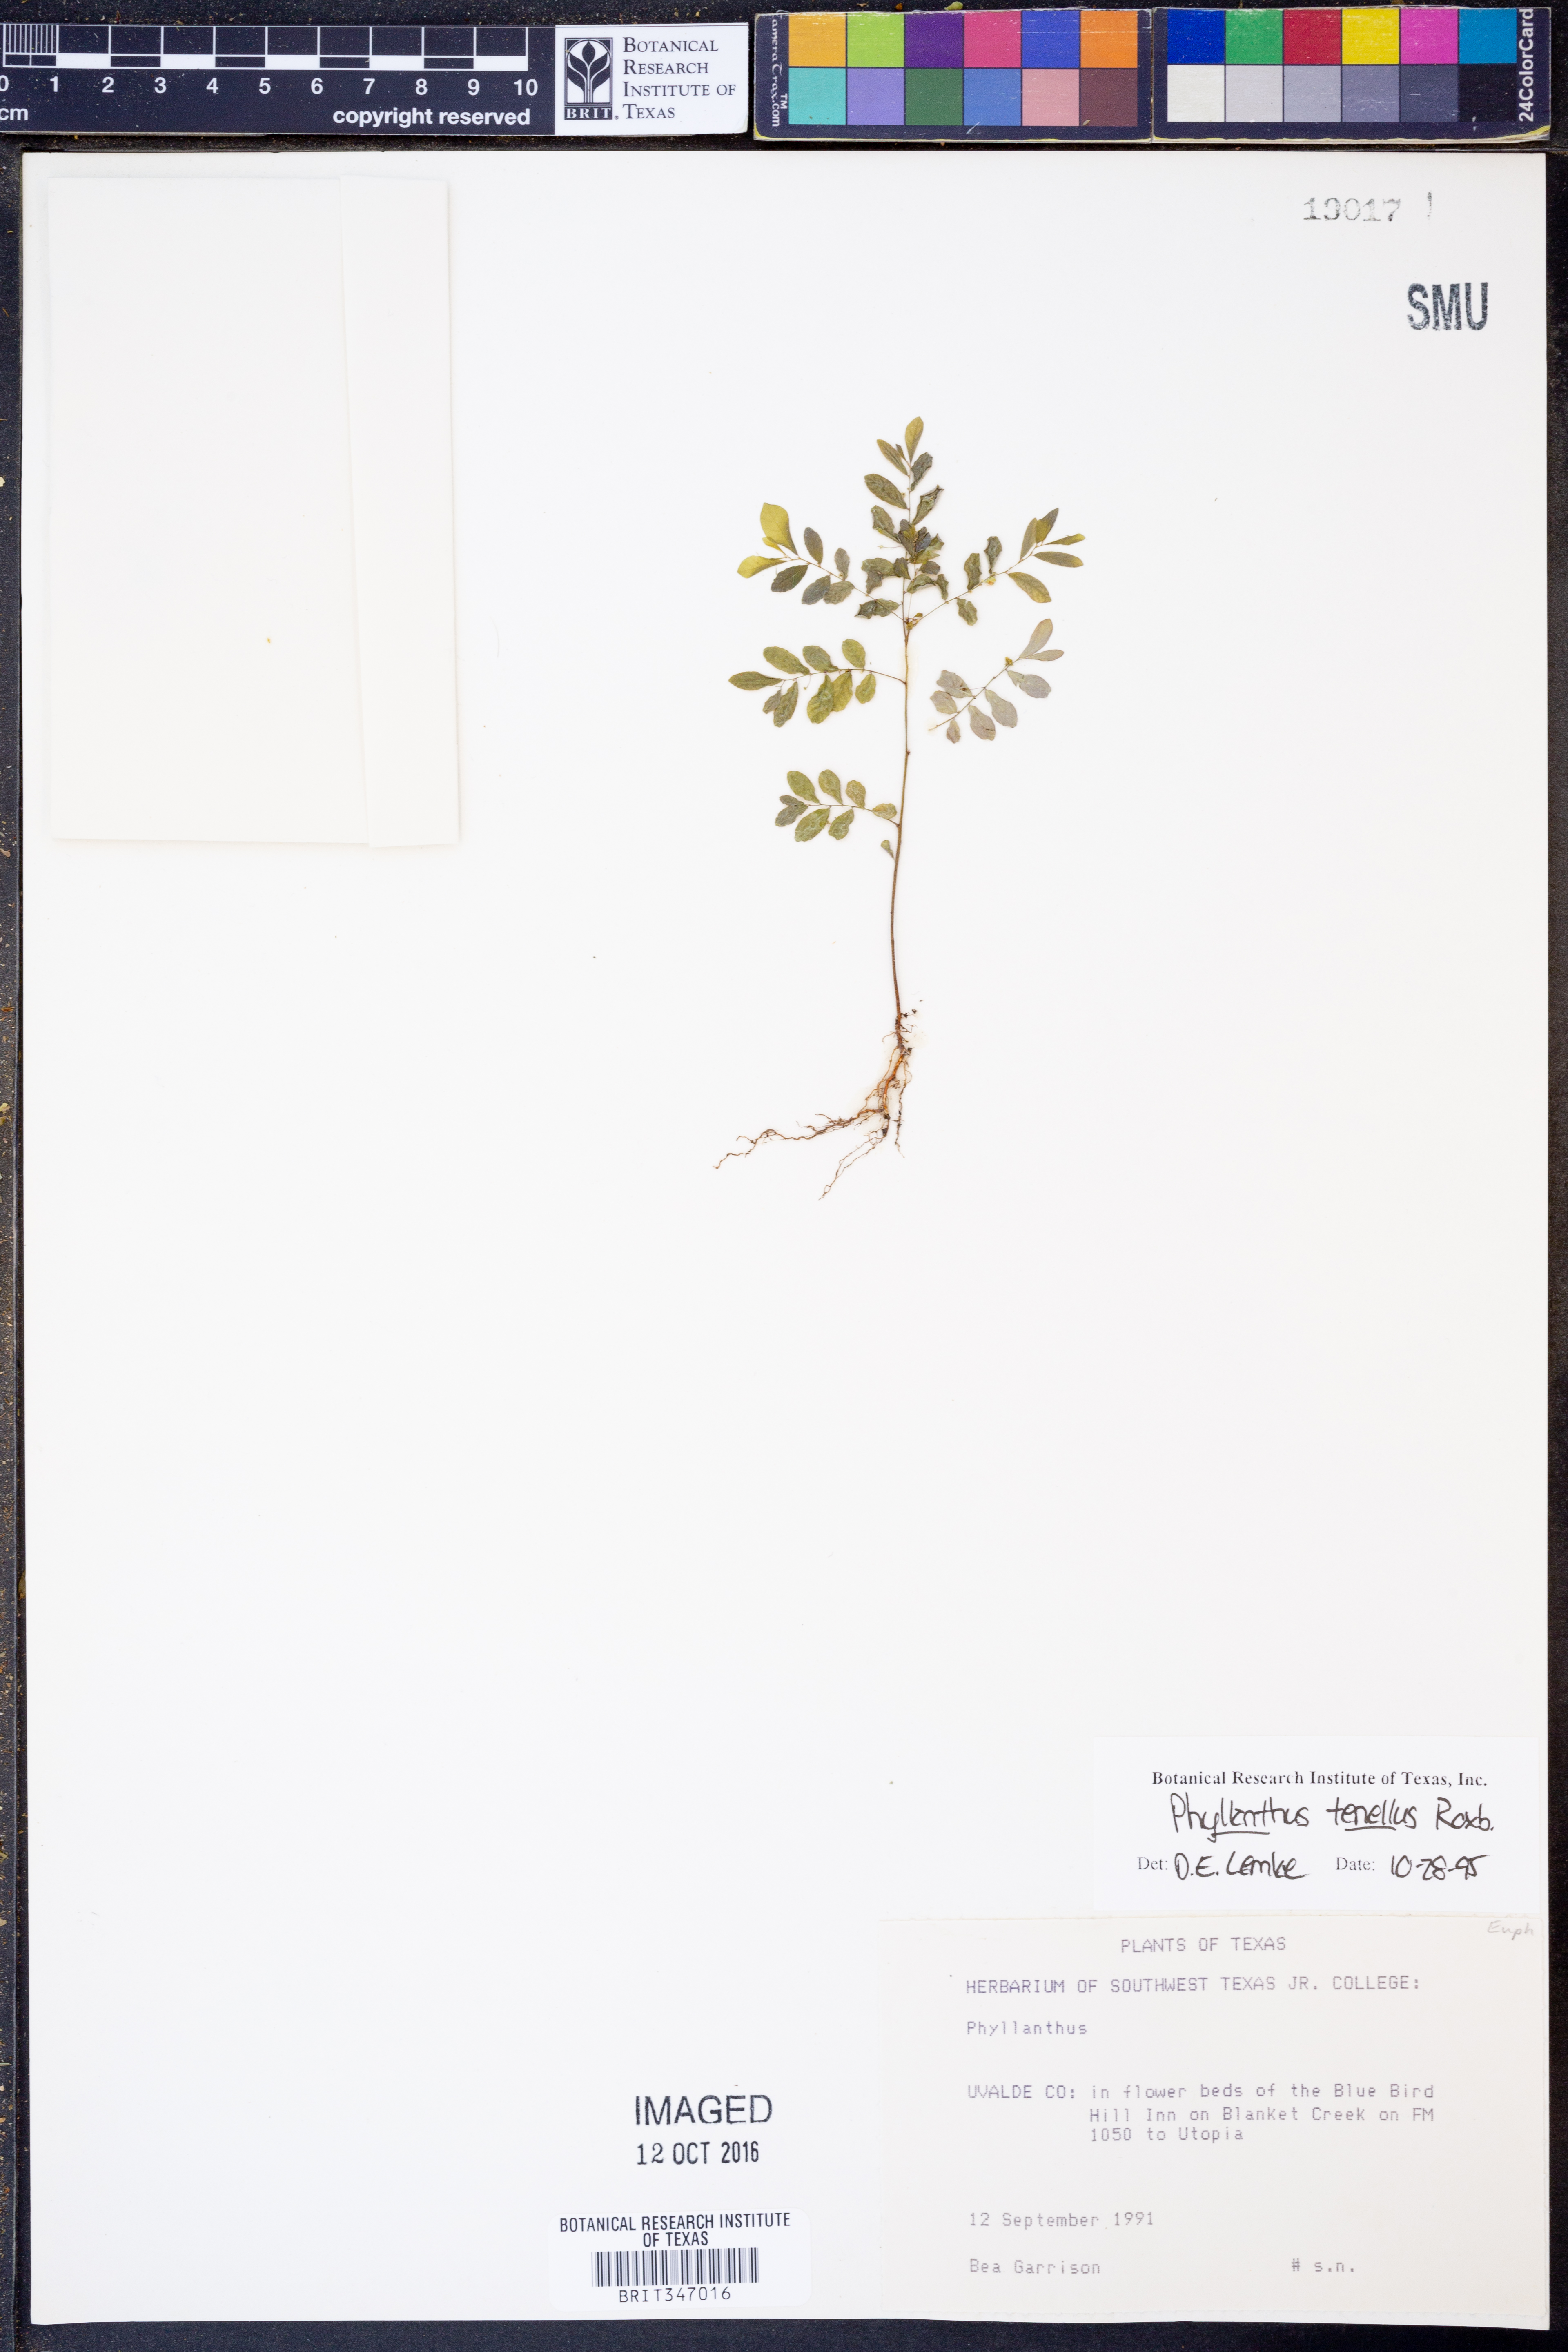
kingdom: Plantae
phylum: Tracheophyta
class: Magnoliopsida
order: Malpighiales
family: Phyllanthaceae
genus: Phyllanthus
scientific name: Phyllanthus tenellus
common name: Mascarene island leaf-flower
